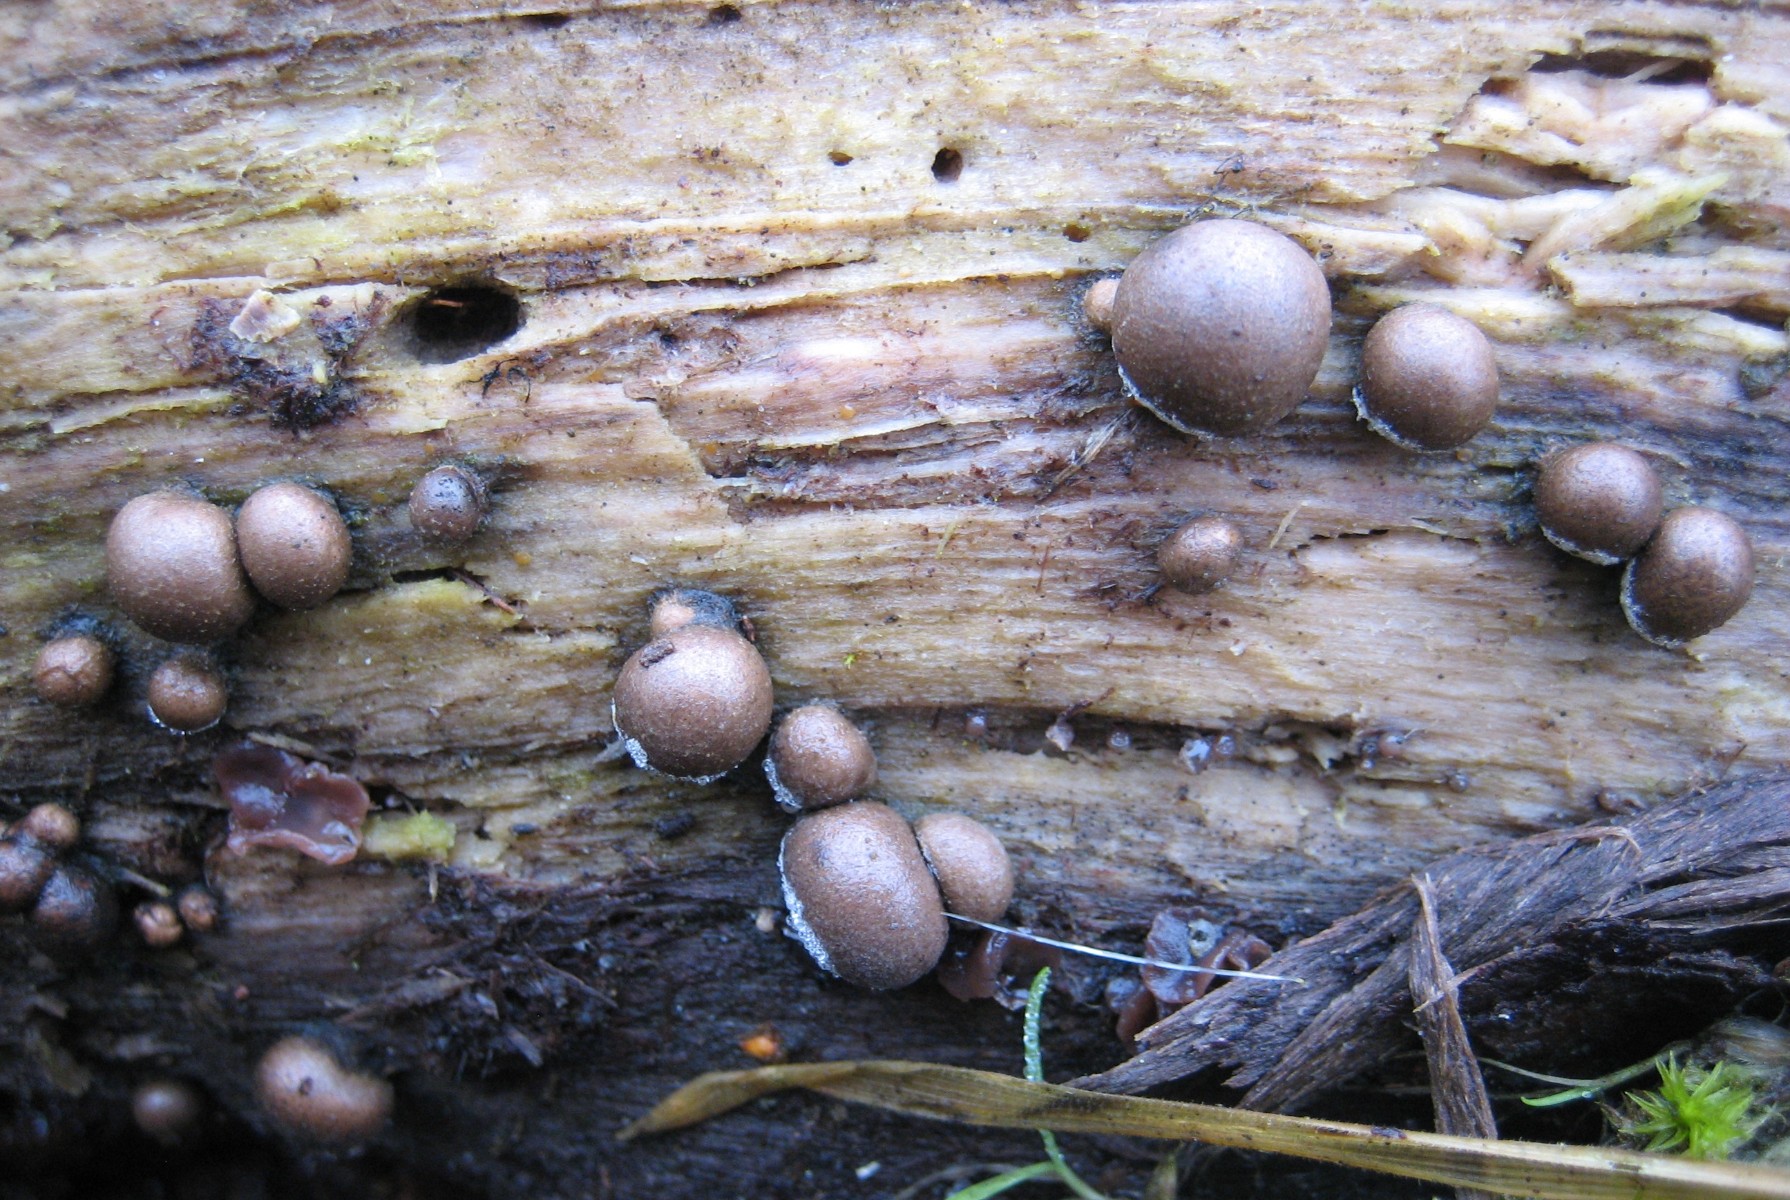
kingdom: Protozoa
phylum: Mycetozoa
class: Myxomycetes
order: Cribrariales
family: Tubiferaceae
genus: Lycogala
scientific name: Lycogala epidendrum
